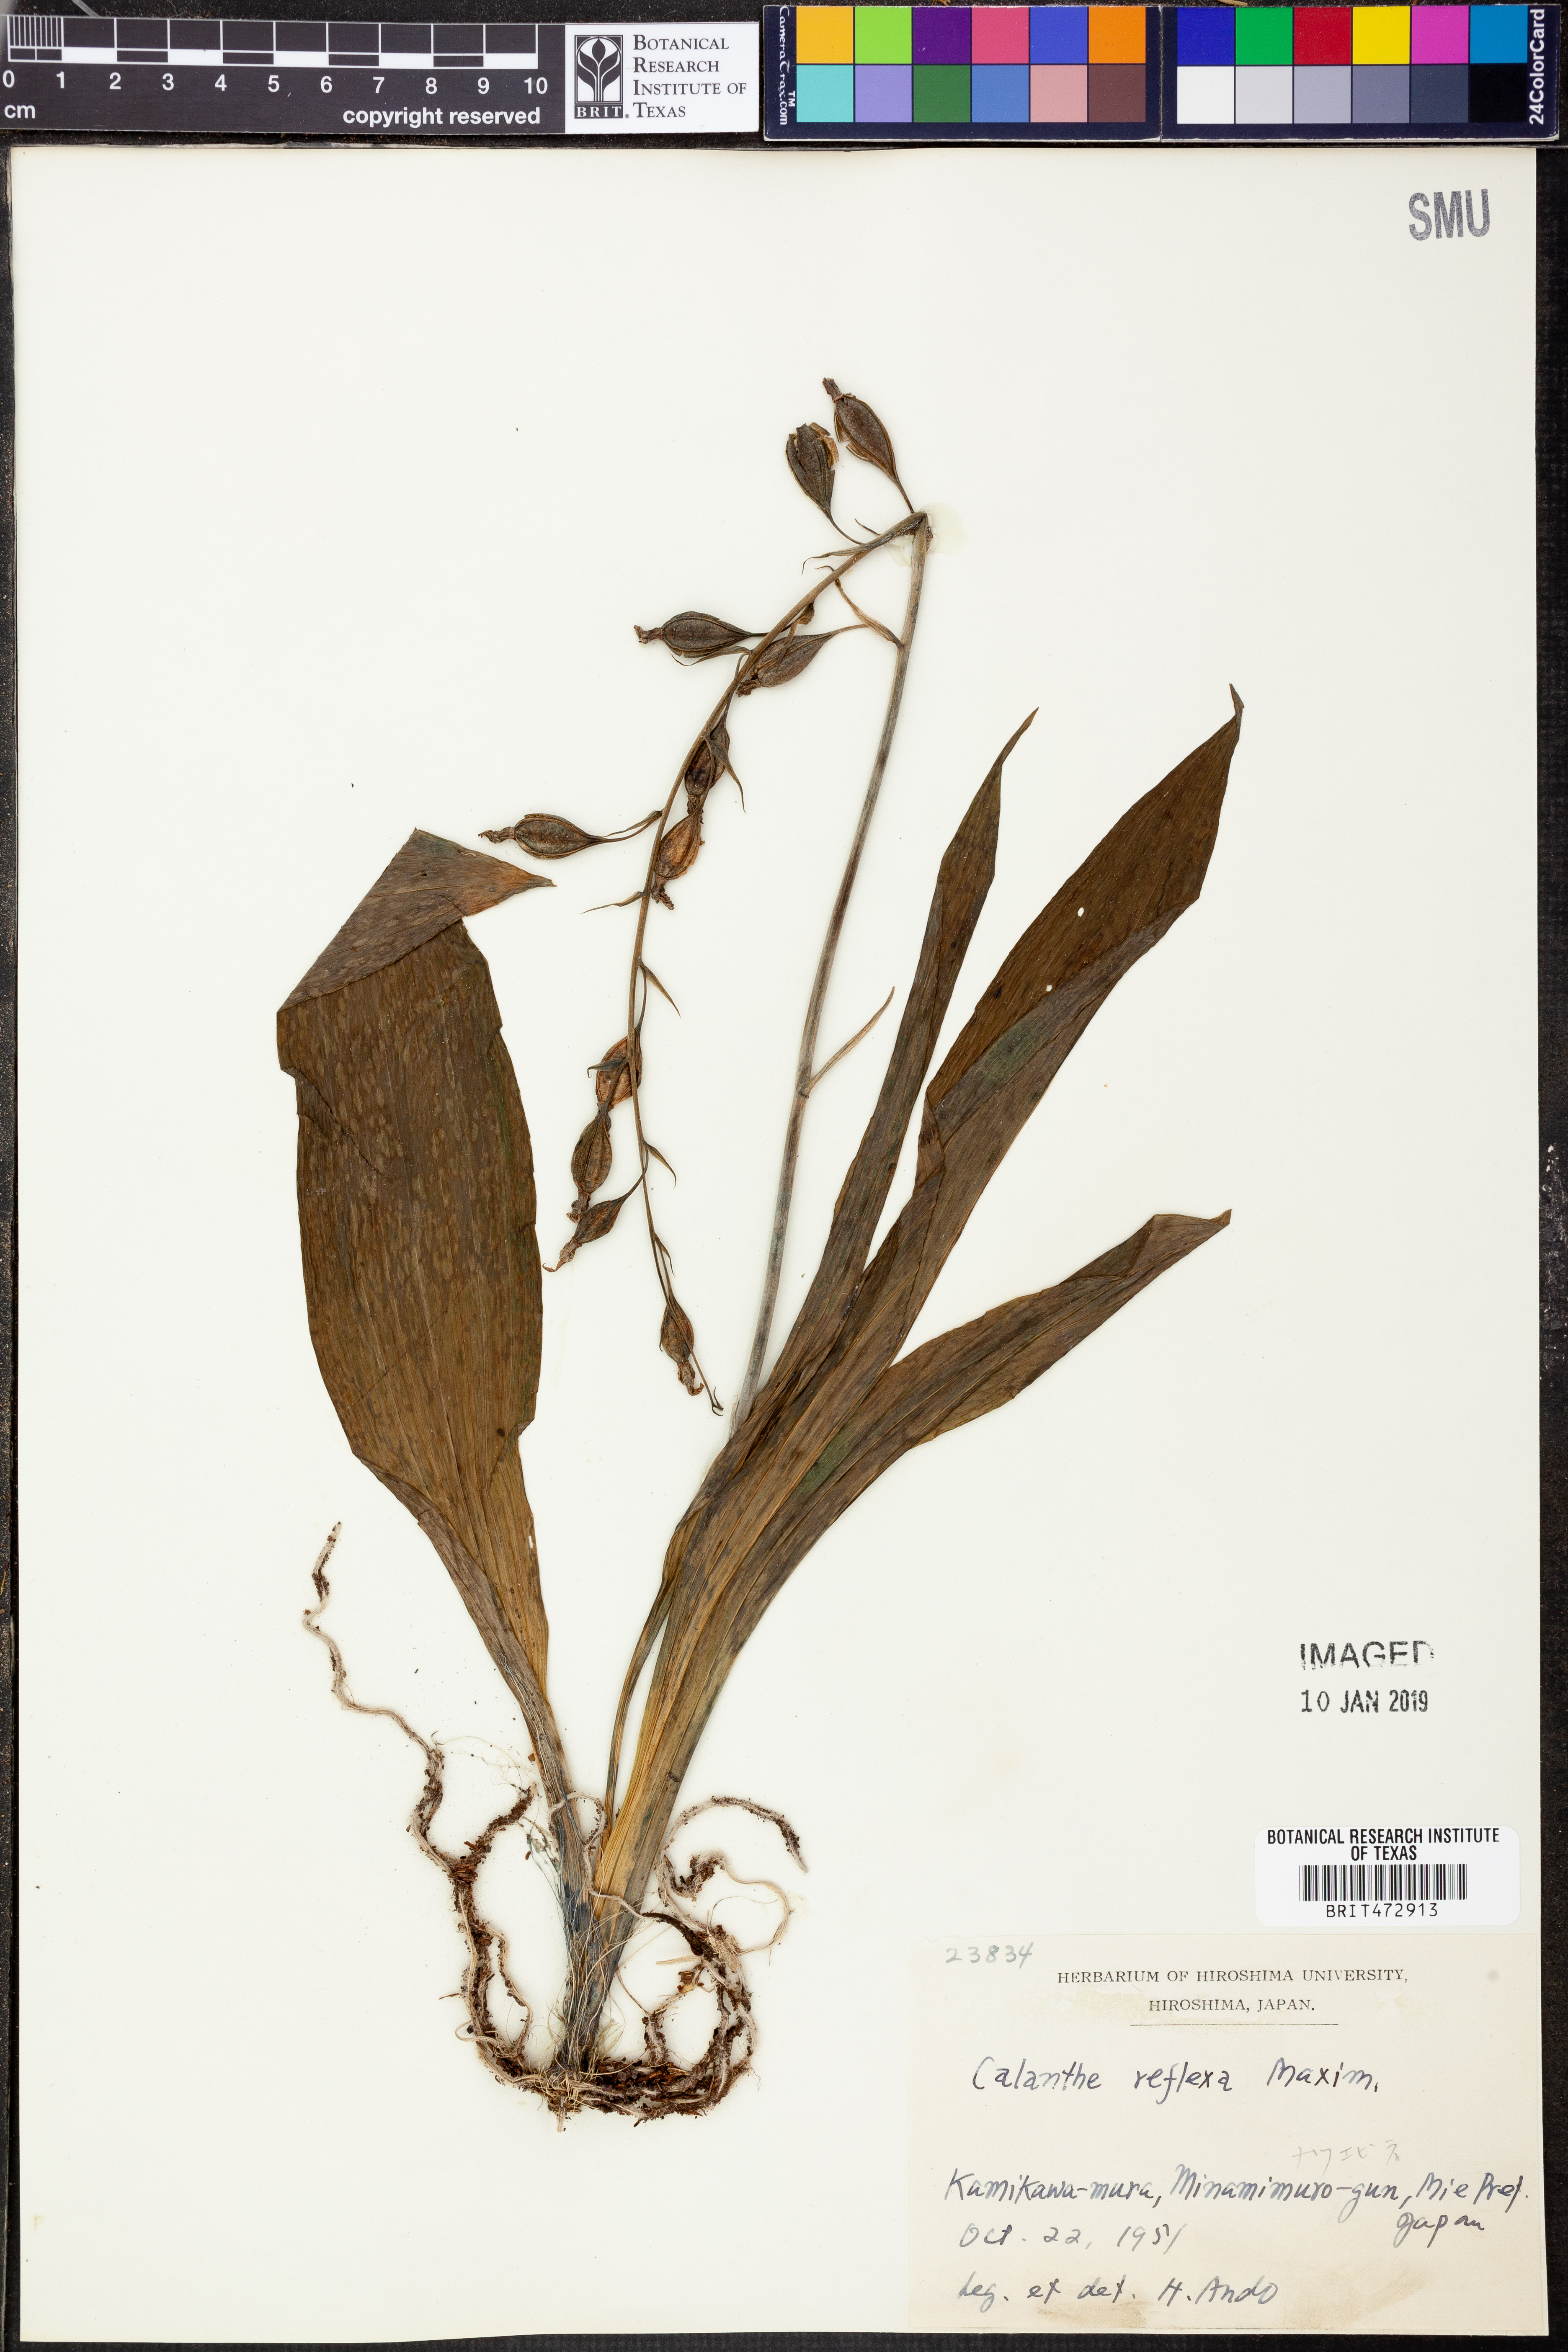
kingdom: Plantae
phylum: Tracheophyta
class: Liliopsida
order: Asparagales
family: Orchidaceae
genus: Calanthe
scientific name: Calanthe puberula
